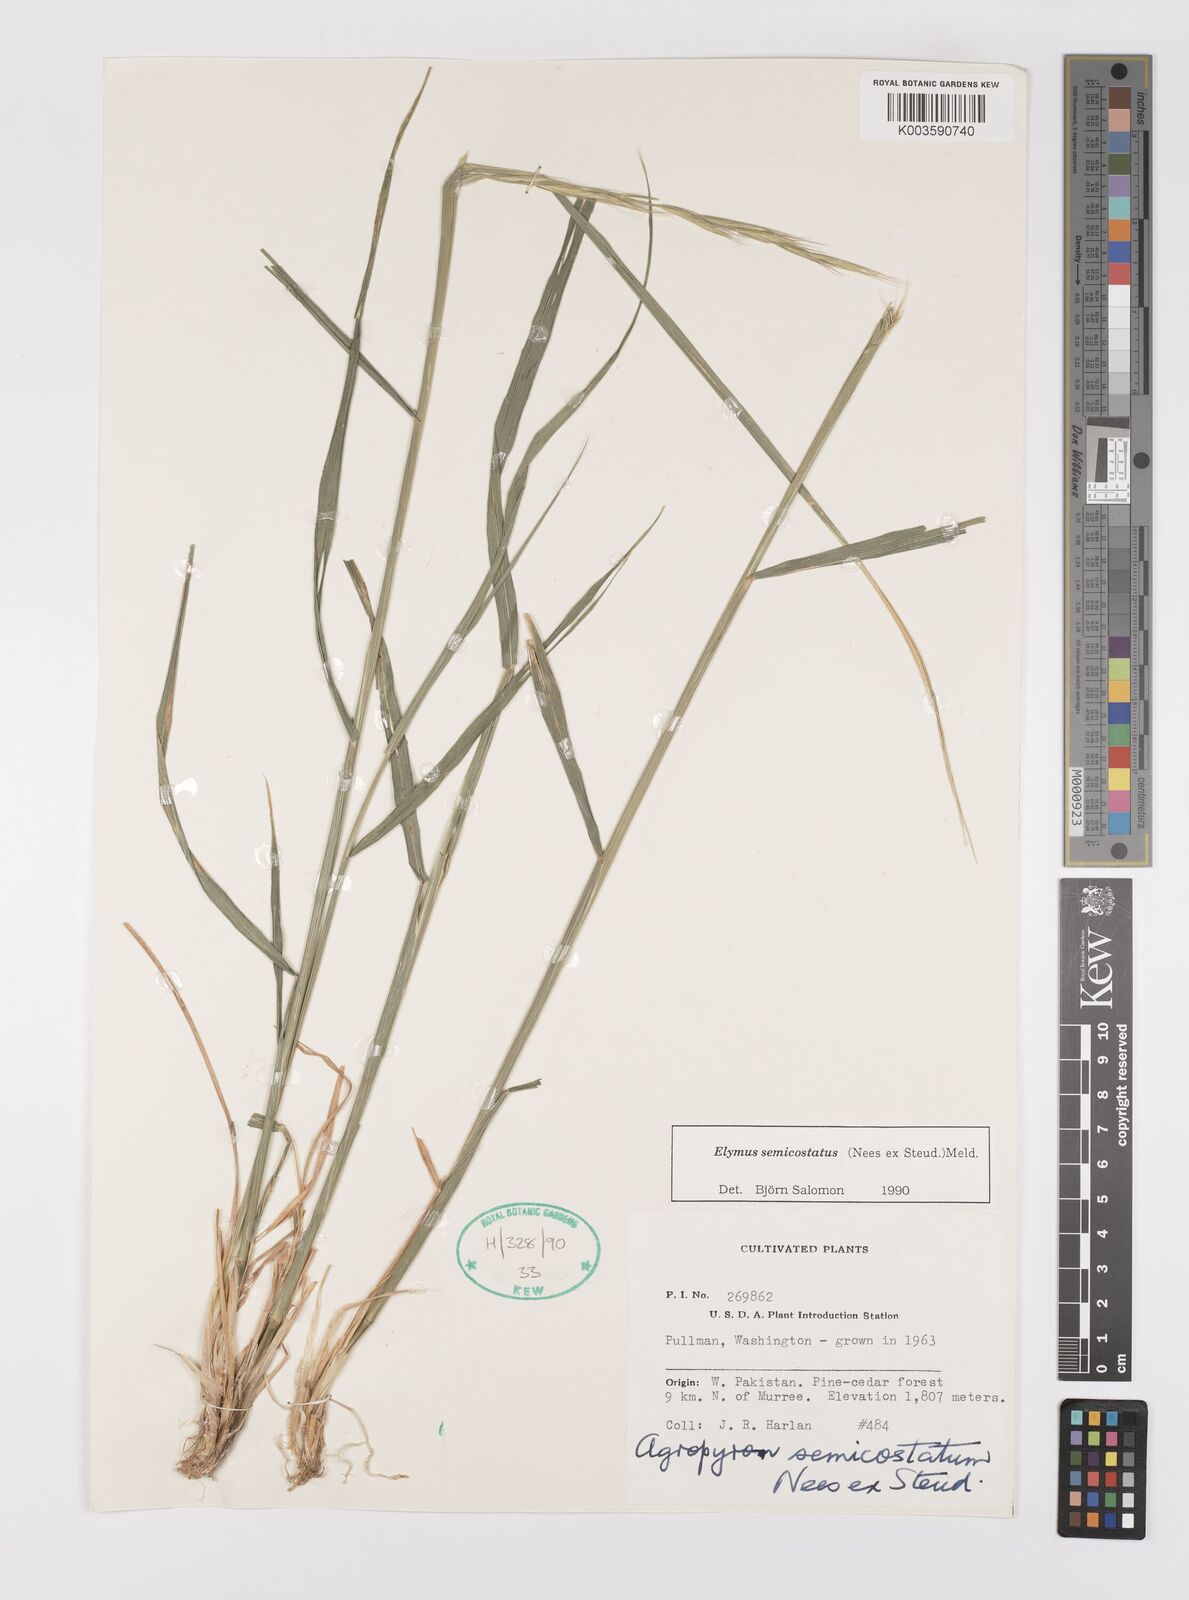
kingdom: Plantae
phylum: Tracheophyta
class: Liliopsida
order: Poales
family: Poaceae
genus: Elymus
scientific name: Elymus semicostatus
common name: Drooping wildrye
